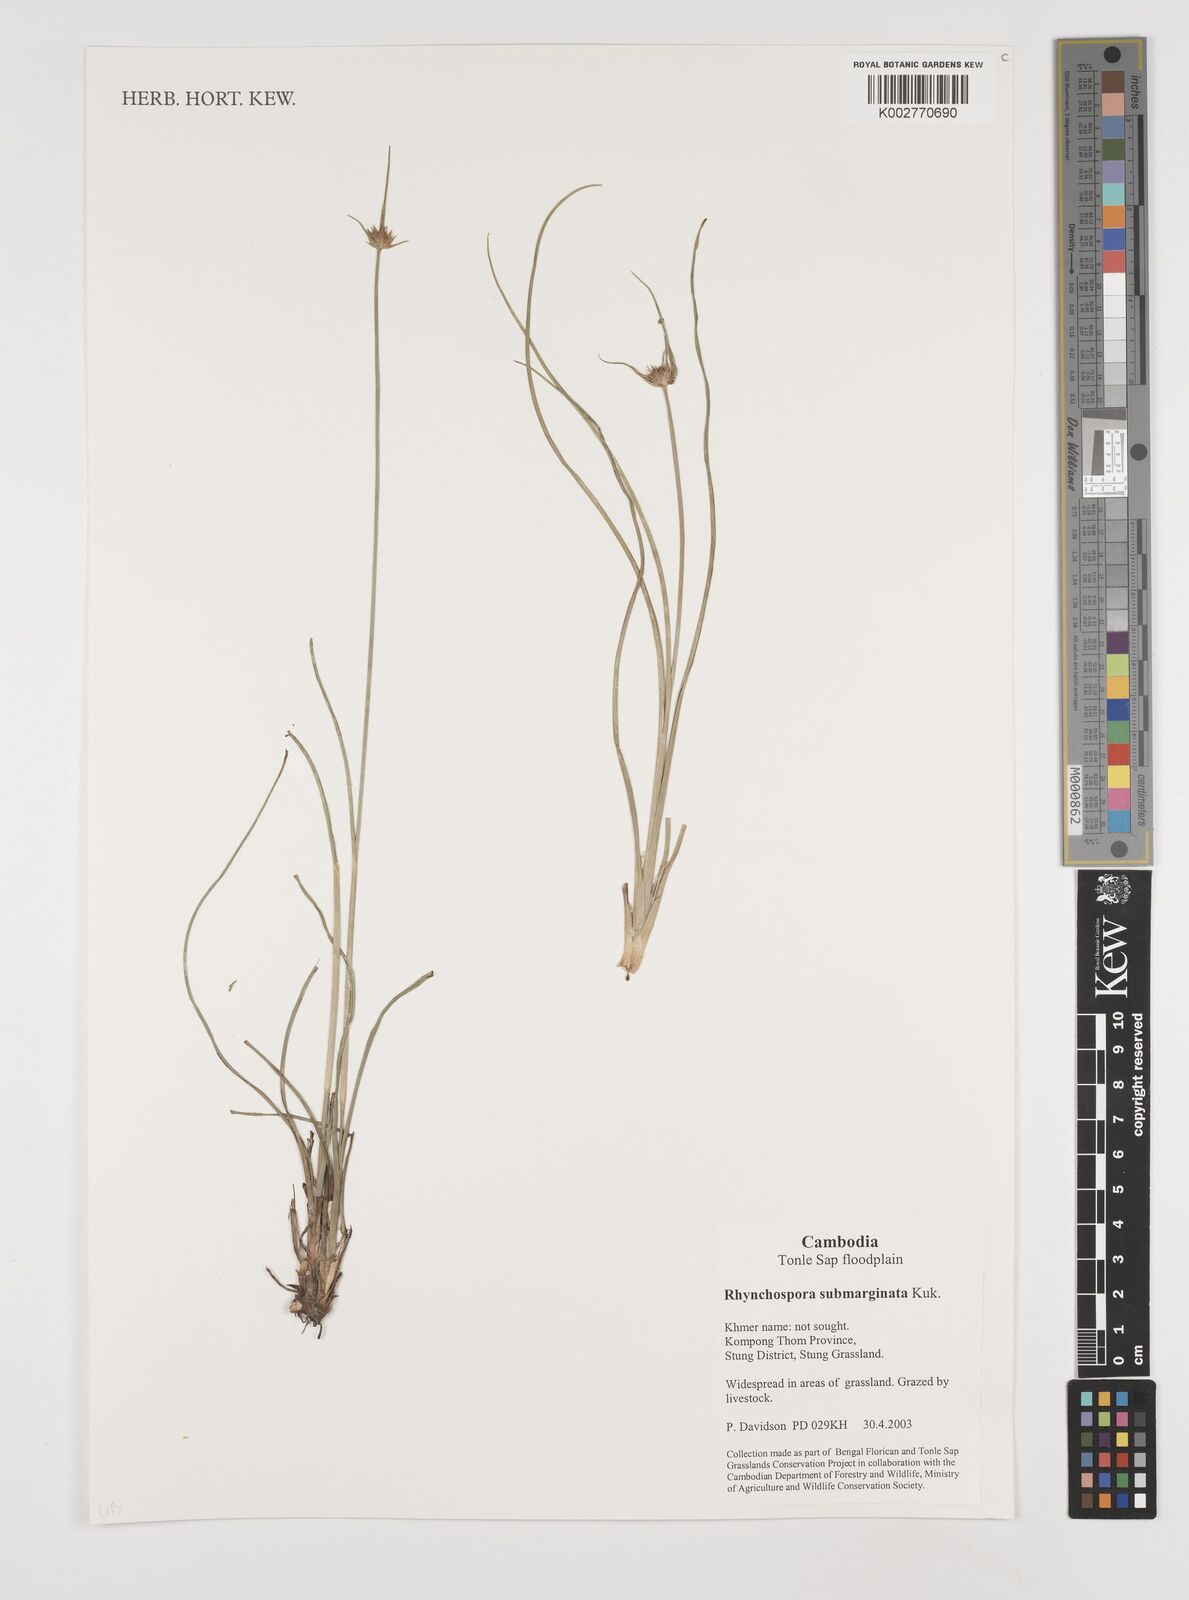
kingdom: Plantae
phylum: Tracheophyta
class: Liliopsida
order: Poales
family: Cyperaceae
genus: Rhynchospora
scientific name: Rhynchospora submarginata
